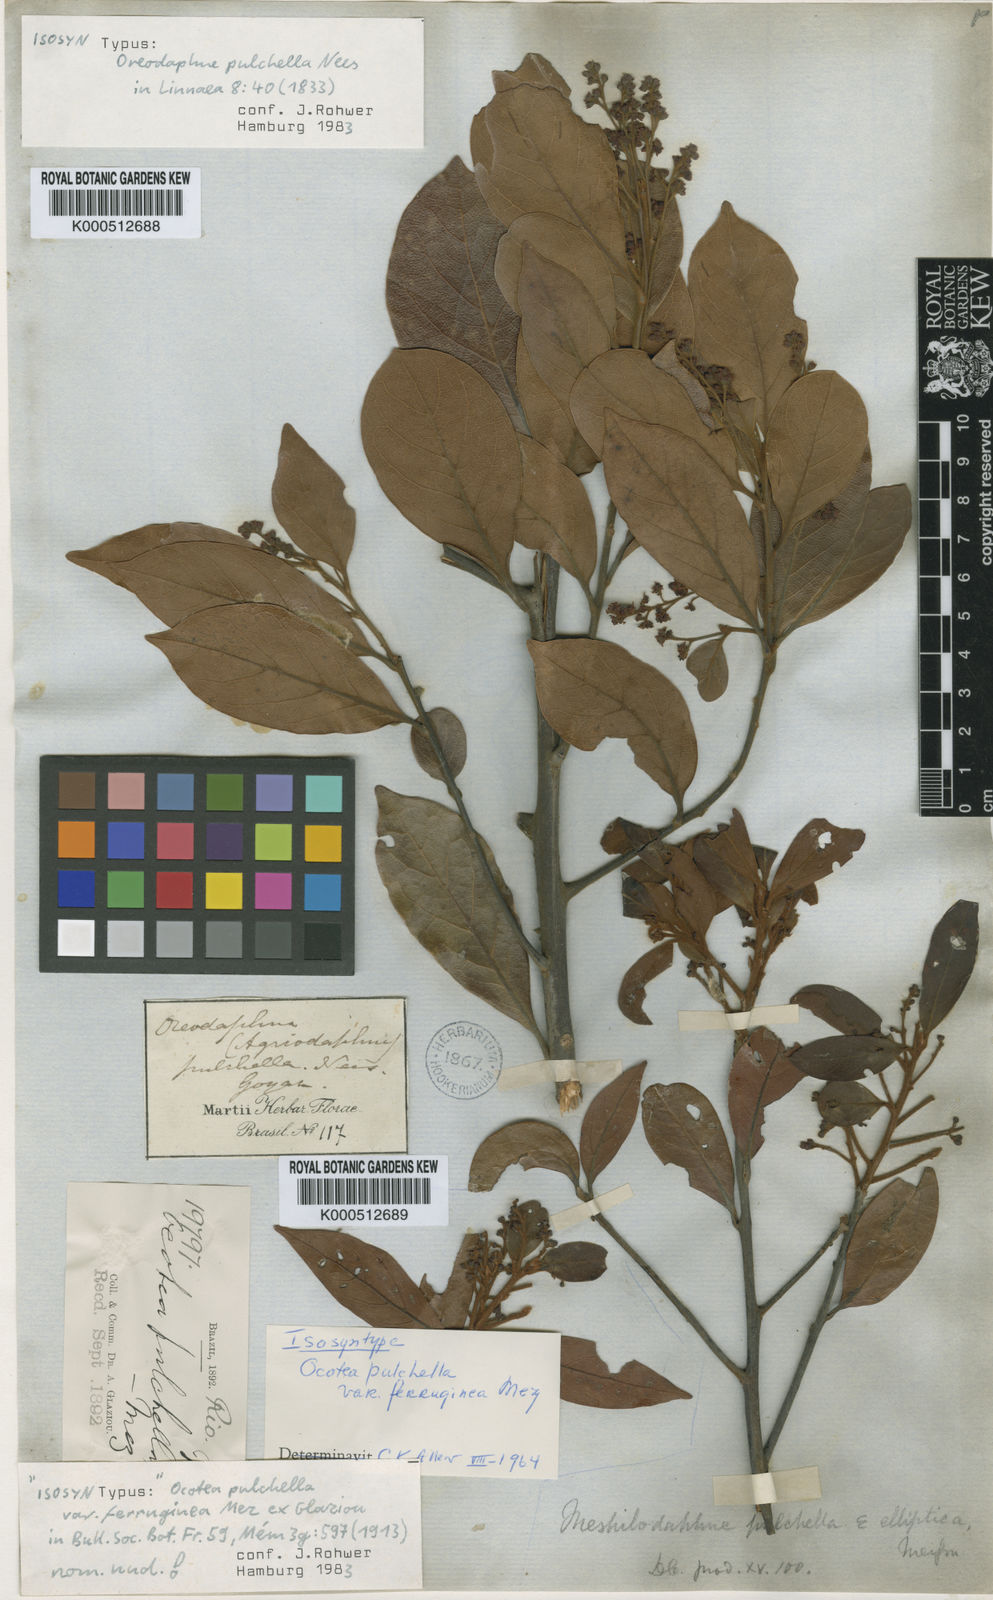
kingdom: Plantae
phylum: Tracheophyta
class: Magnoliopsida
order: Laurales
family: Lauraceae
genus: Mespilodaphne
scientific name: Mespilodaphne pulchella
